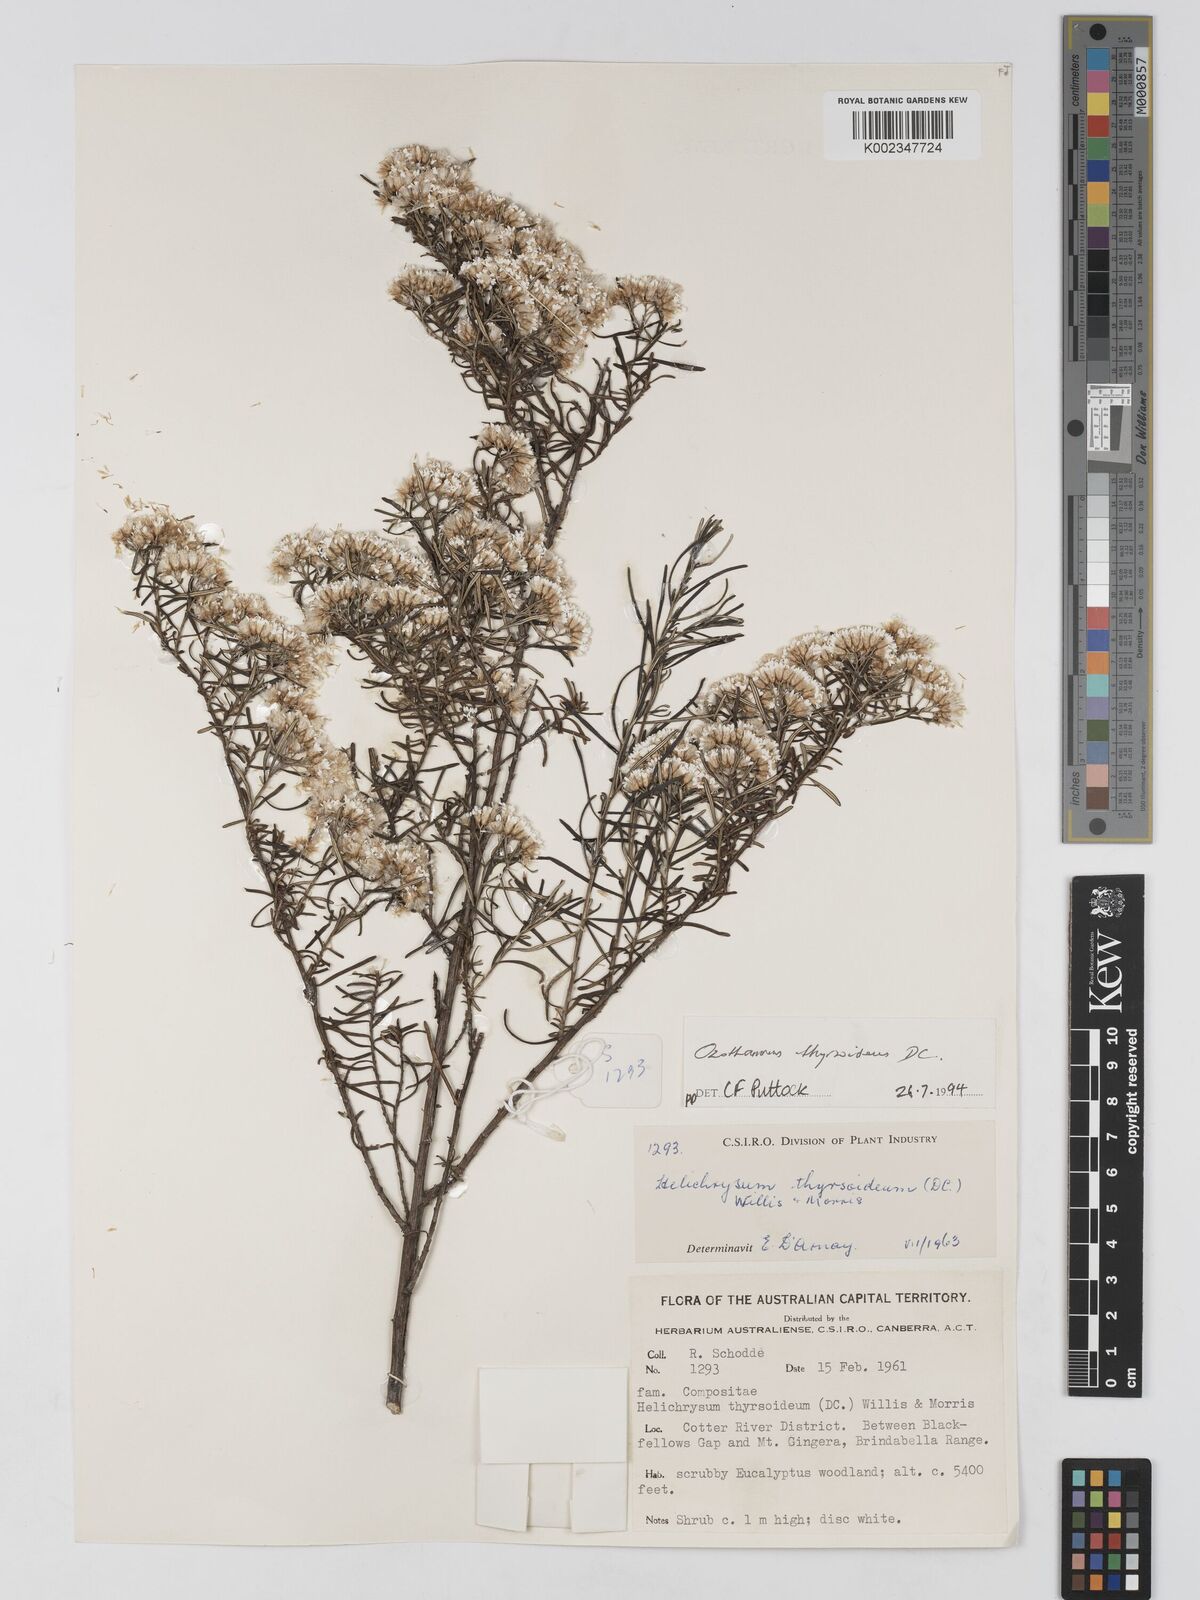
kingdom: Plantae
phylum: Tracheophyta
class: Magnoliopsida
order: Asterales
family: Asteraceae
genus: Ozothamnus
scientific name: Ozothamnus thyrsoideus
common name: Snow-in-summer
